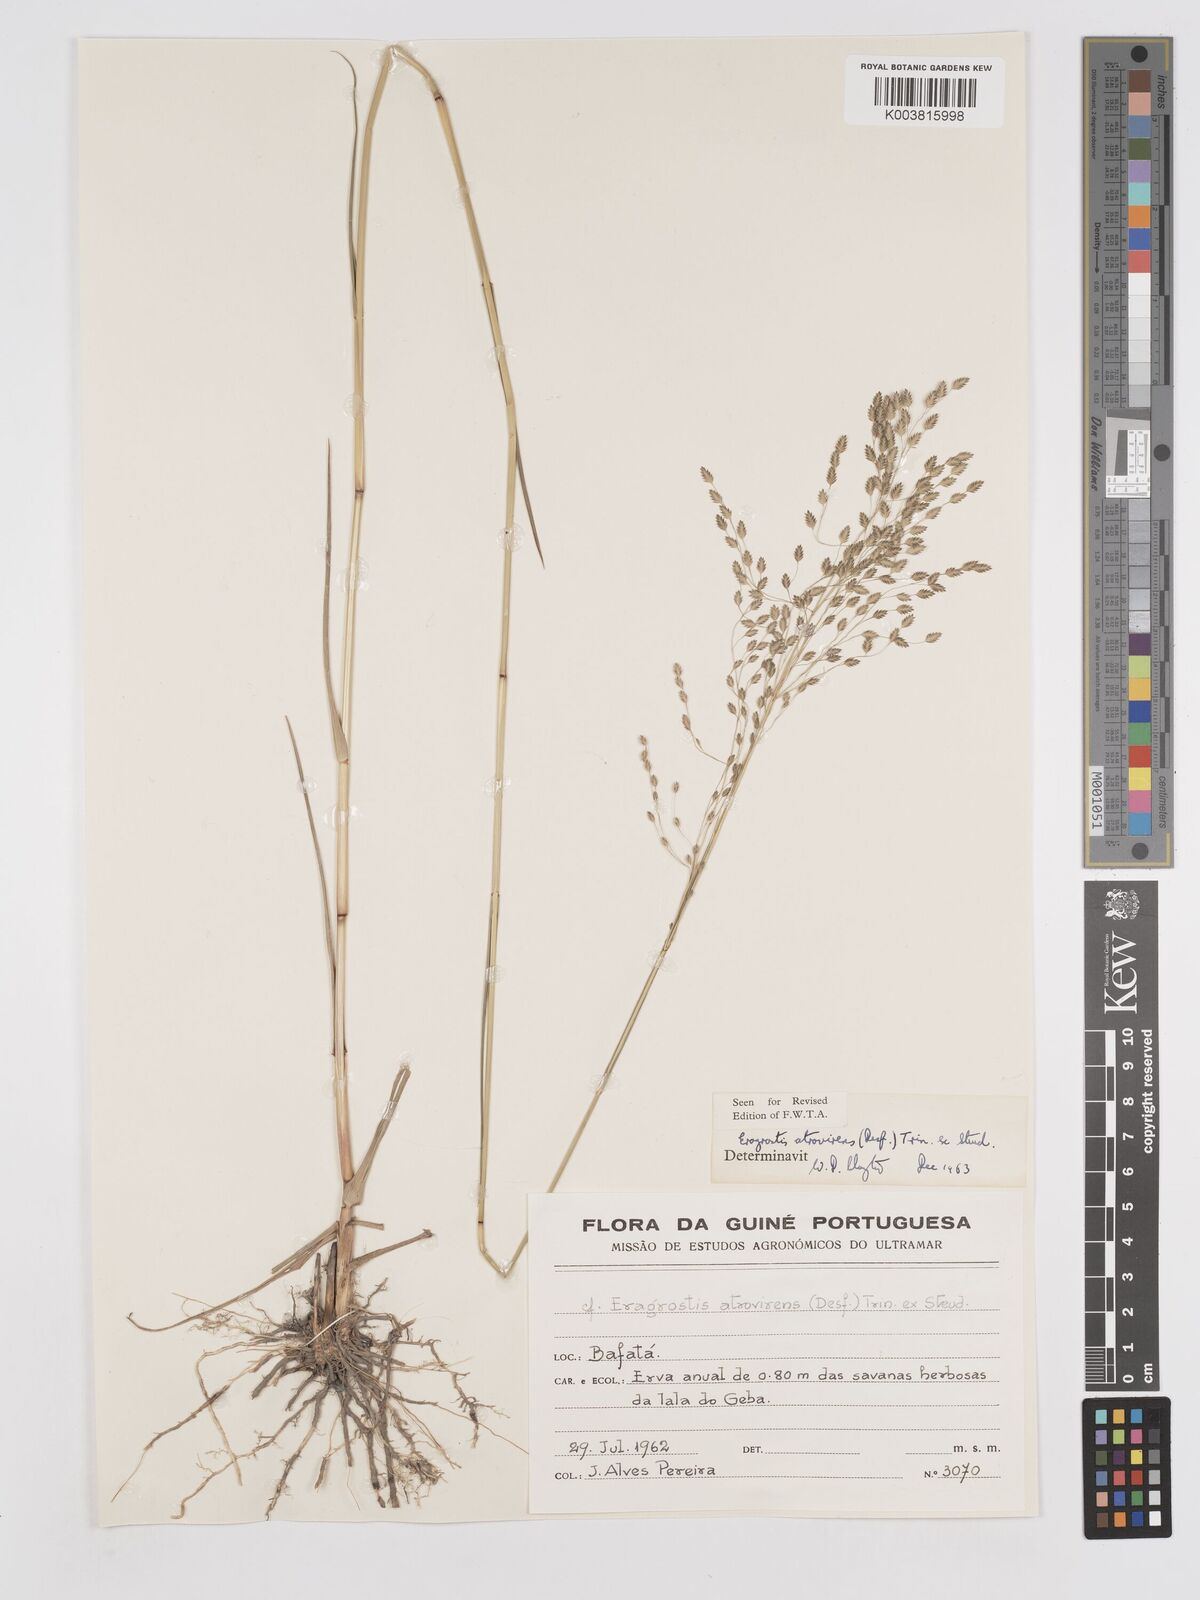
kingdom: Plantae
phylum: Tracheophyta
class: Liliopsida
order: Poales
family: Poaceae
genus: Eragrostis
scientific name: Eragrostis atrovirens
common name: Thalia lovegrass
